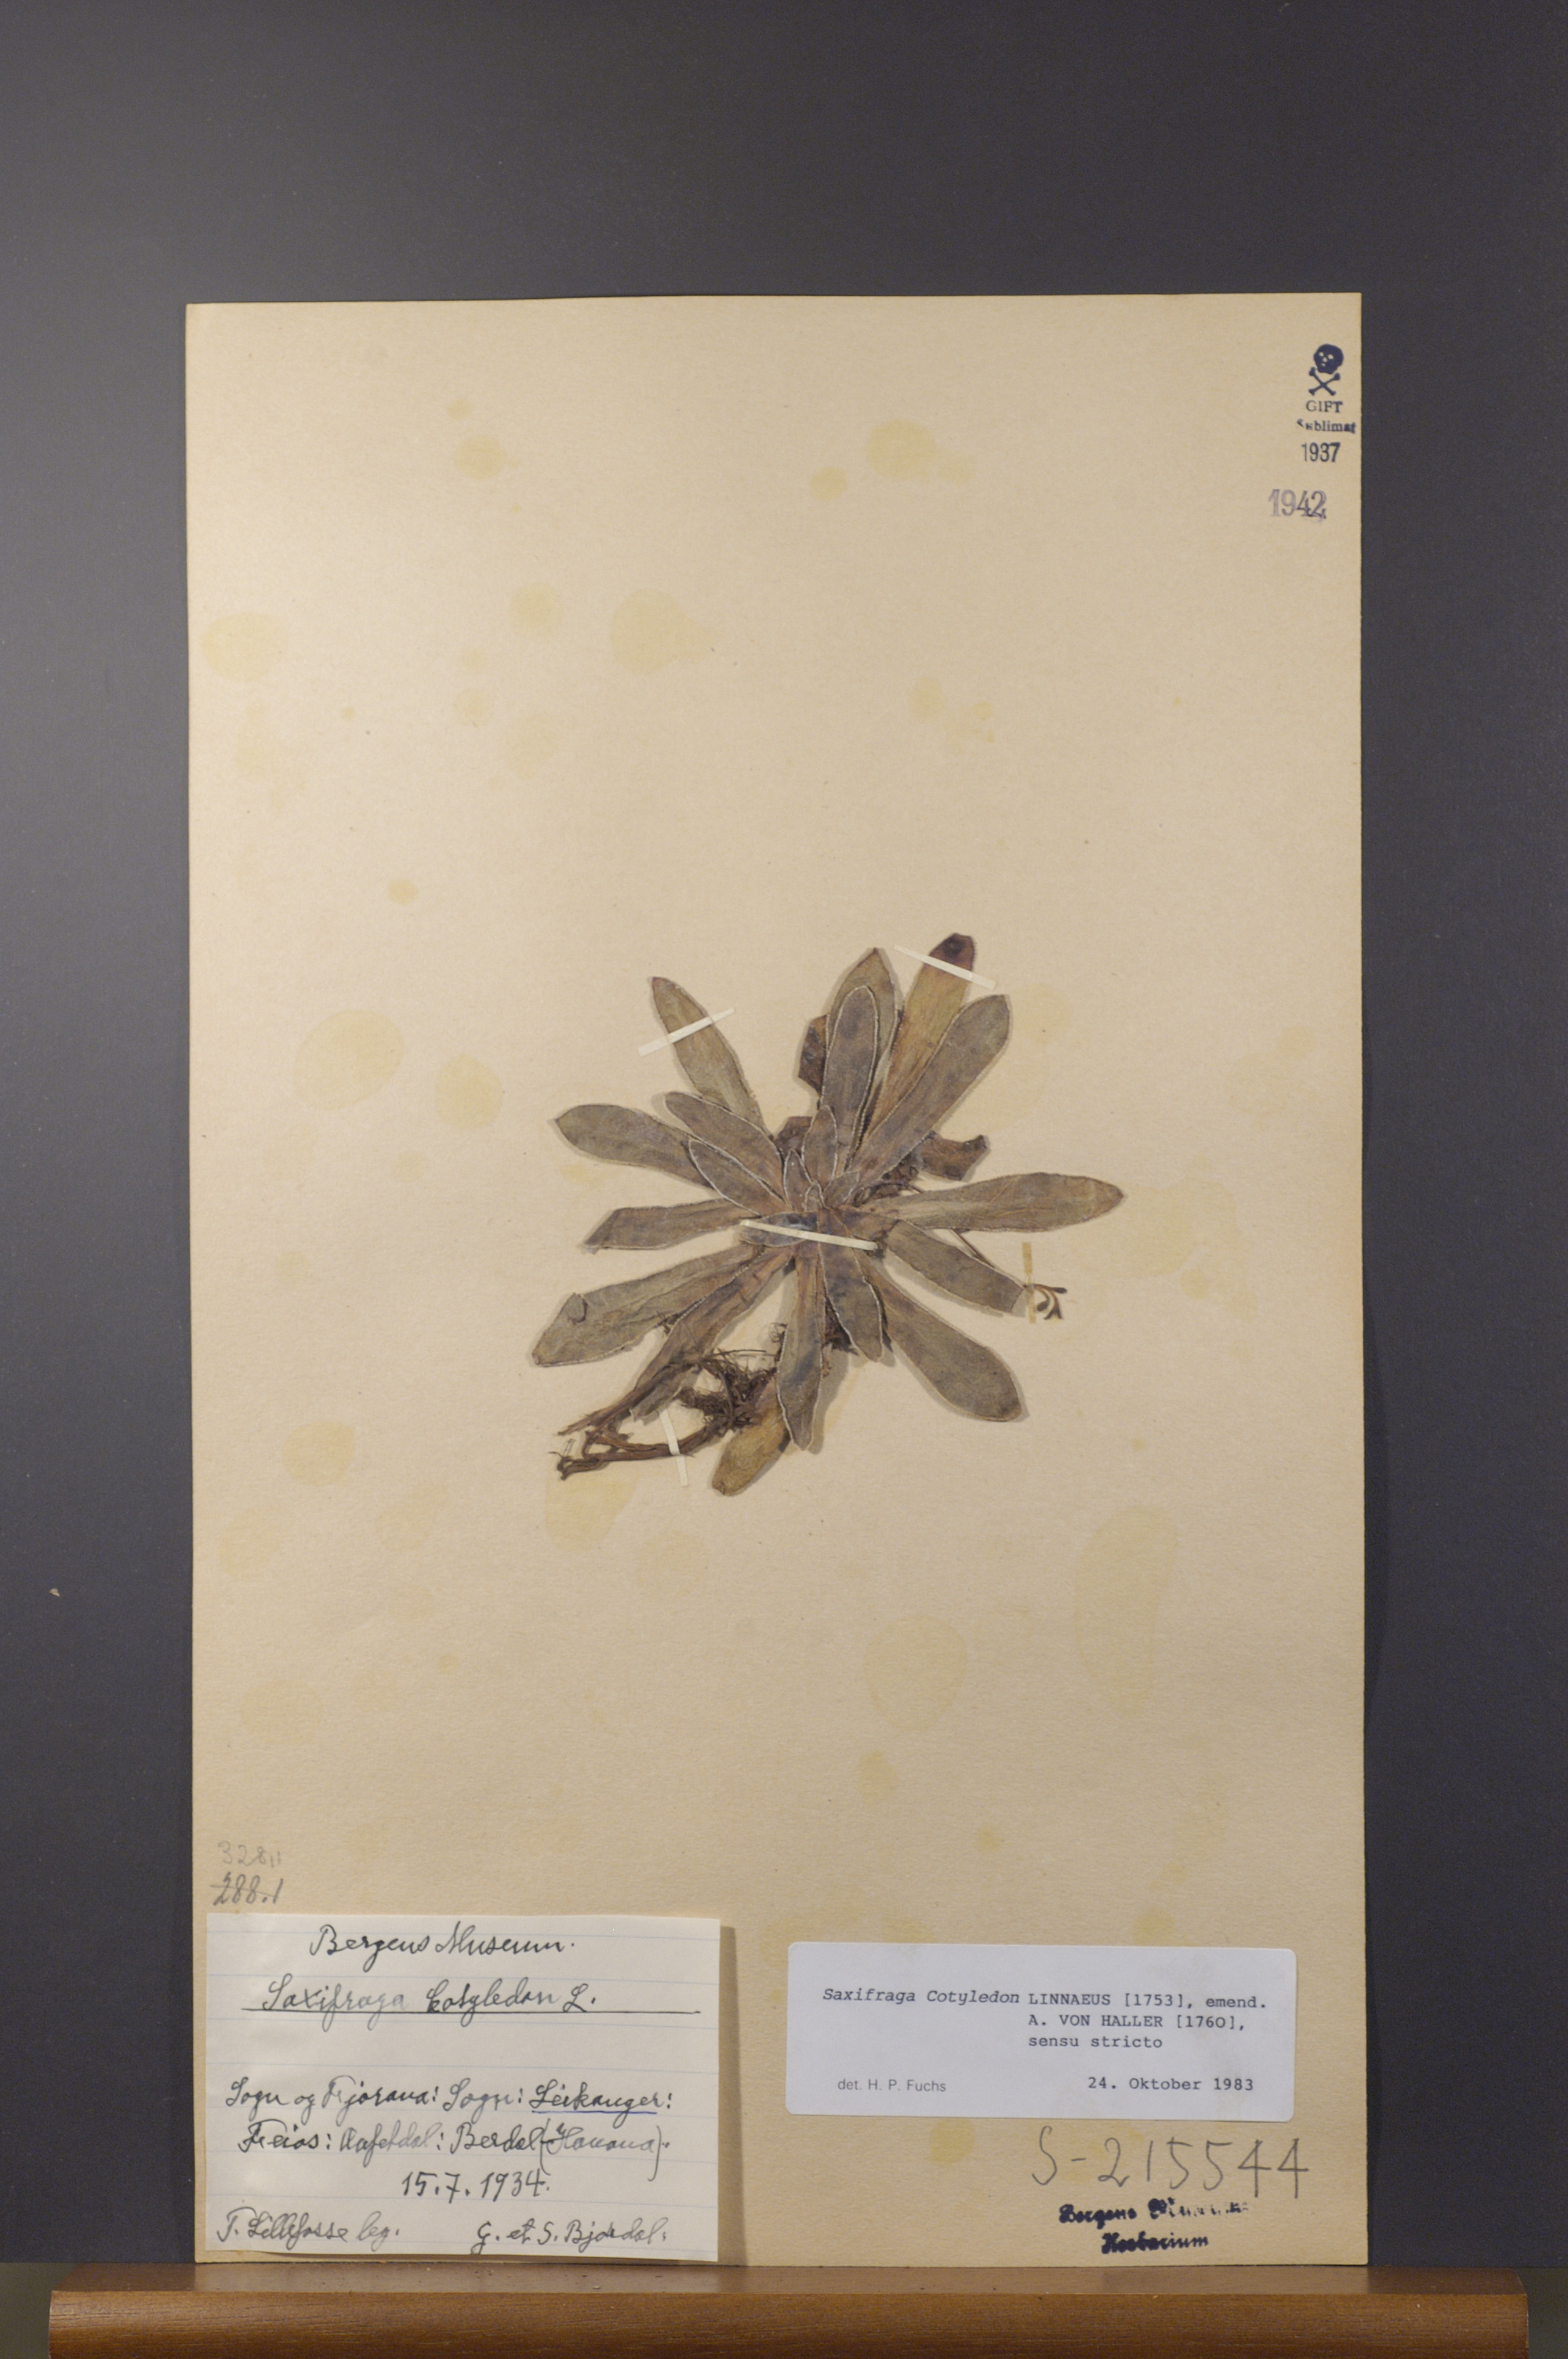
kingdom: Plantae
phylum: Tracheophyta
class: Magnoliopsida
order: Saxifragales
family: Saxifragaceae
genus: Saxifraga
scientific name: Saxifraga cotyledon
